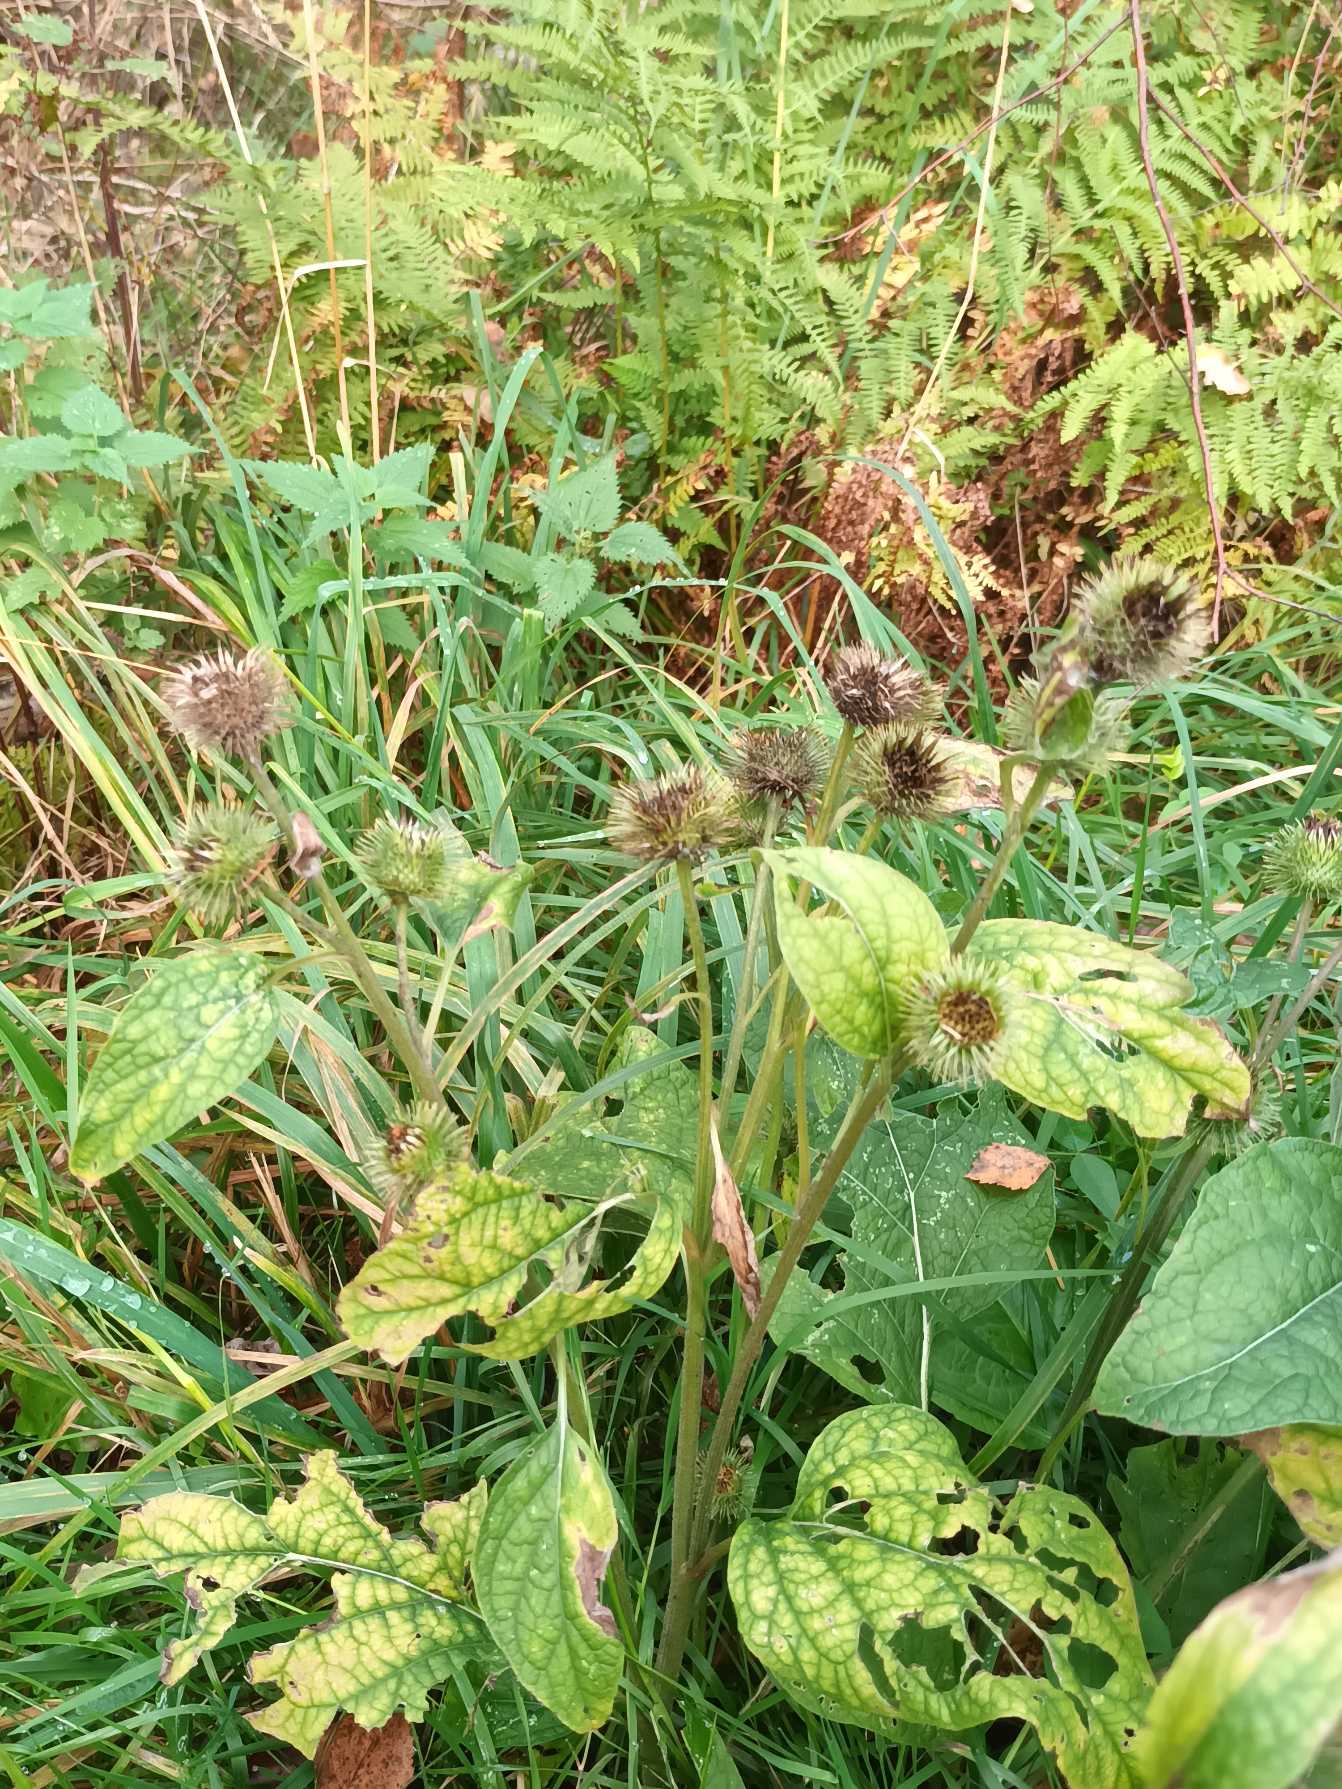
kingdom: Plantae
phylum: Tracheophyta
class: Magnoliopsida
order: Asterales
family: Asteraceae
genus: Arctium
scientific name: Arctium nemorosum
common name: Skov-burre
